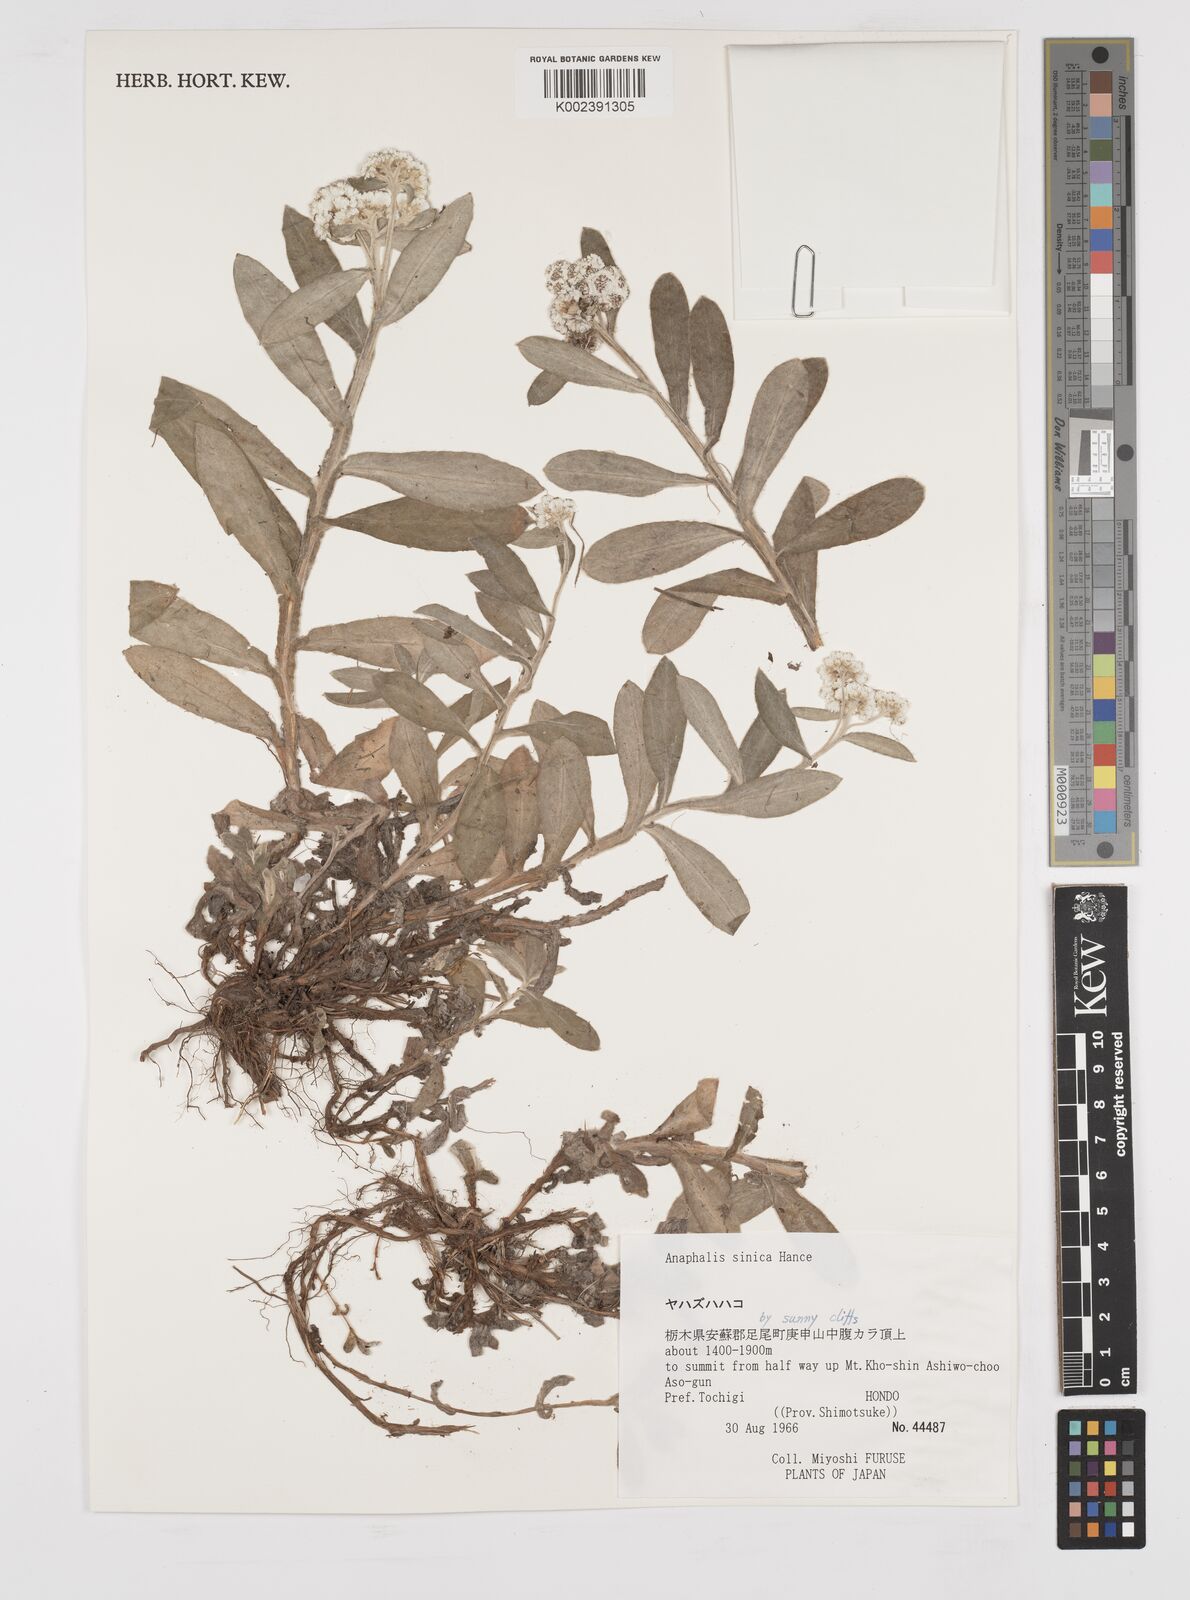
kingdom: Plantae
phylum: Tracheophyta
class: Magnoliopsida
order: Asterales
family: Asteraceae
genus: Anaphalis
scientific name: Anaphalis sinica
